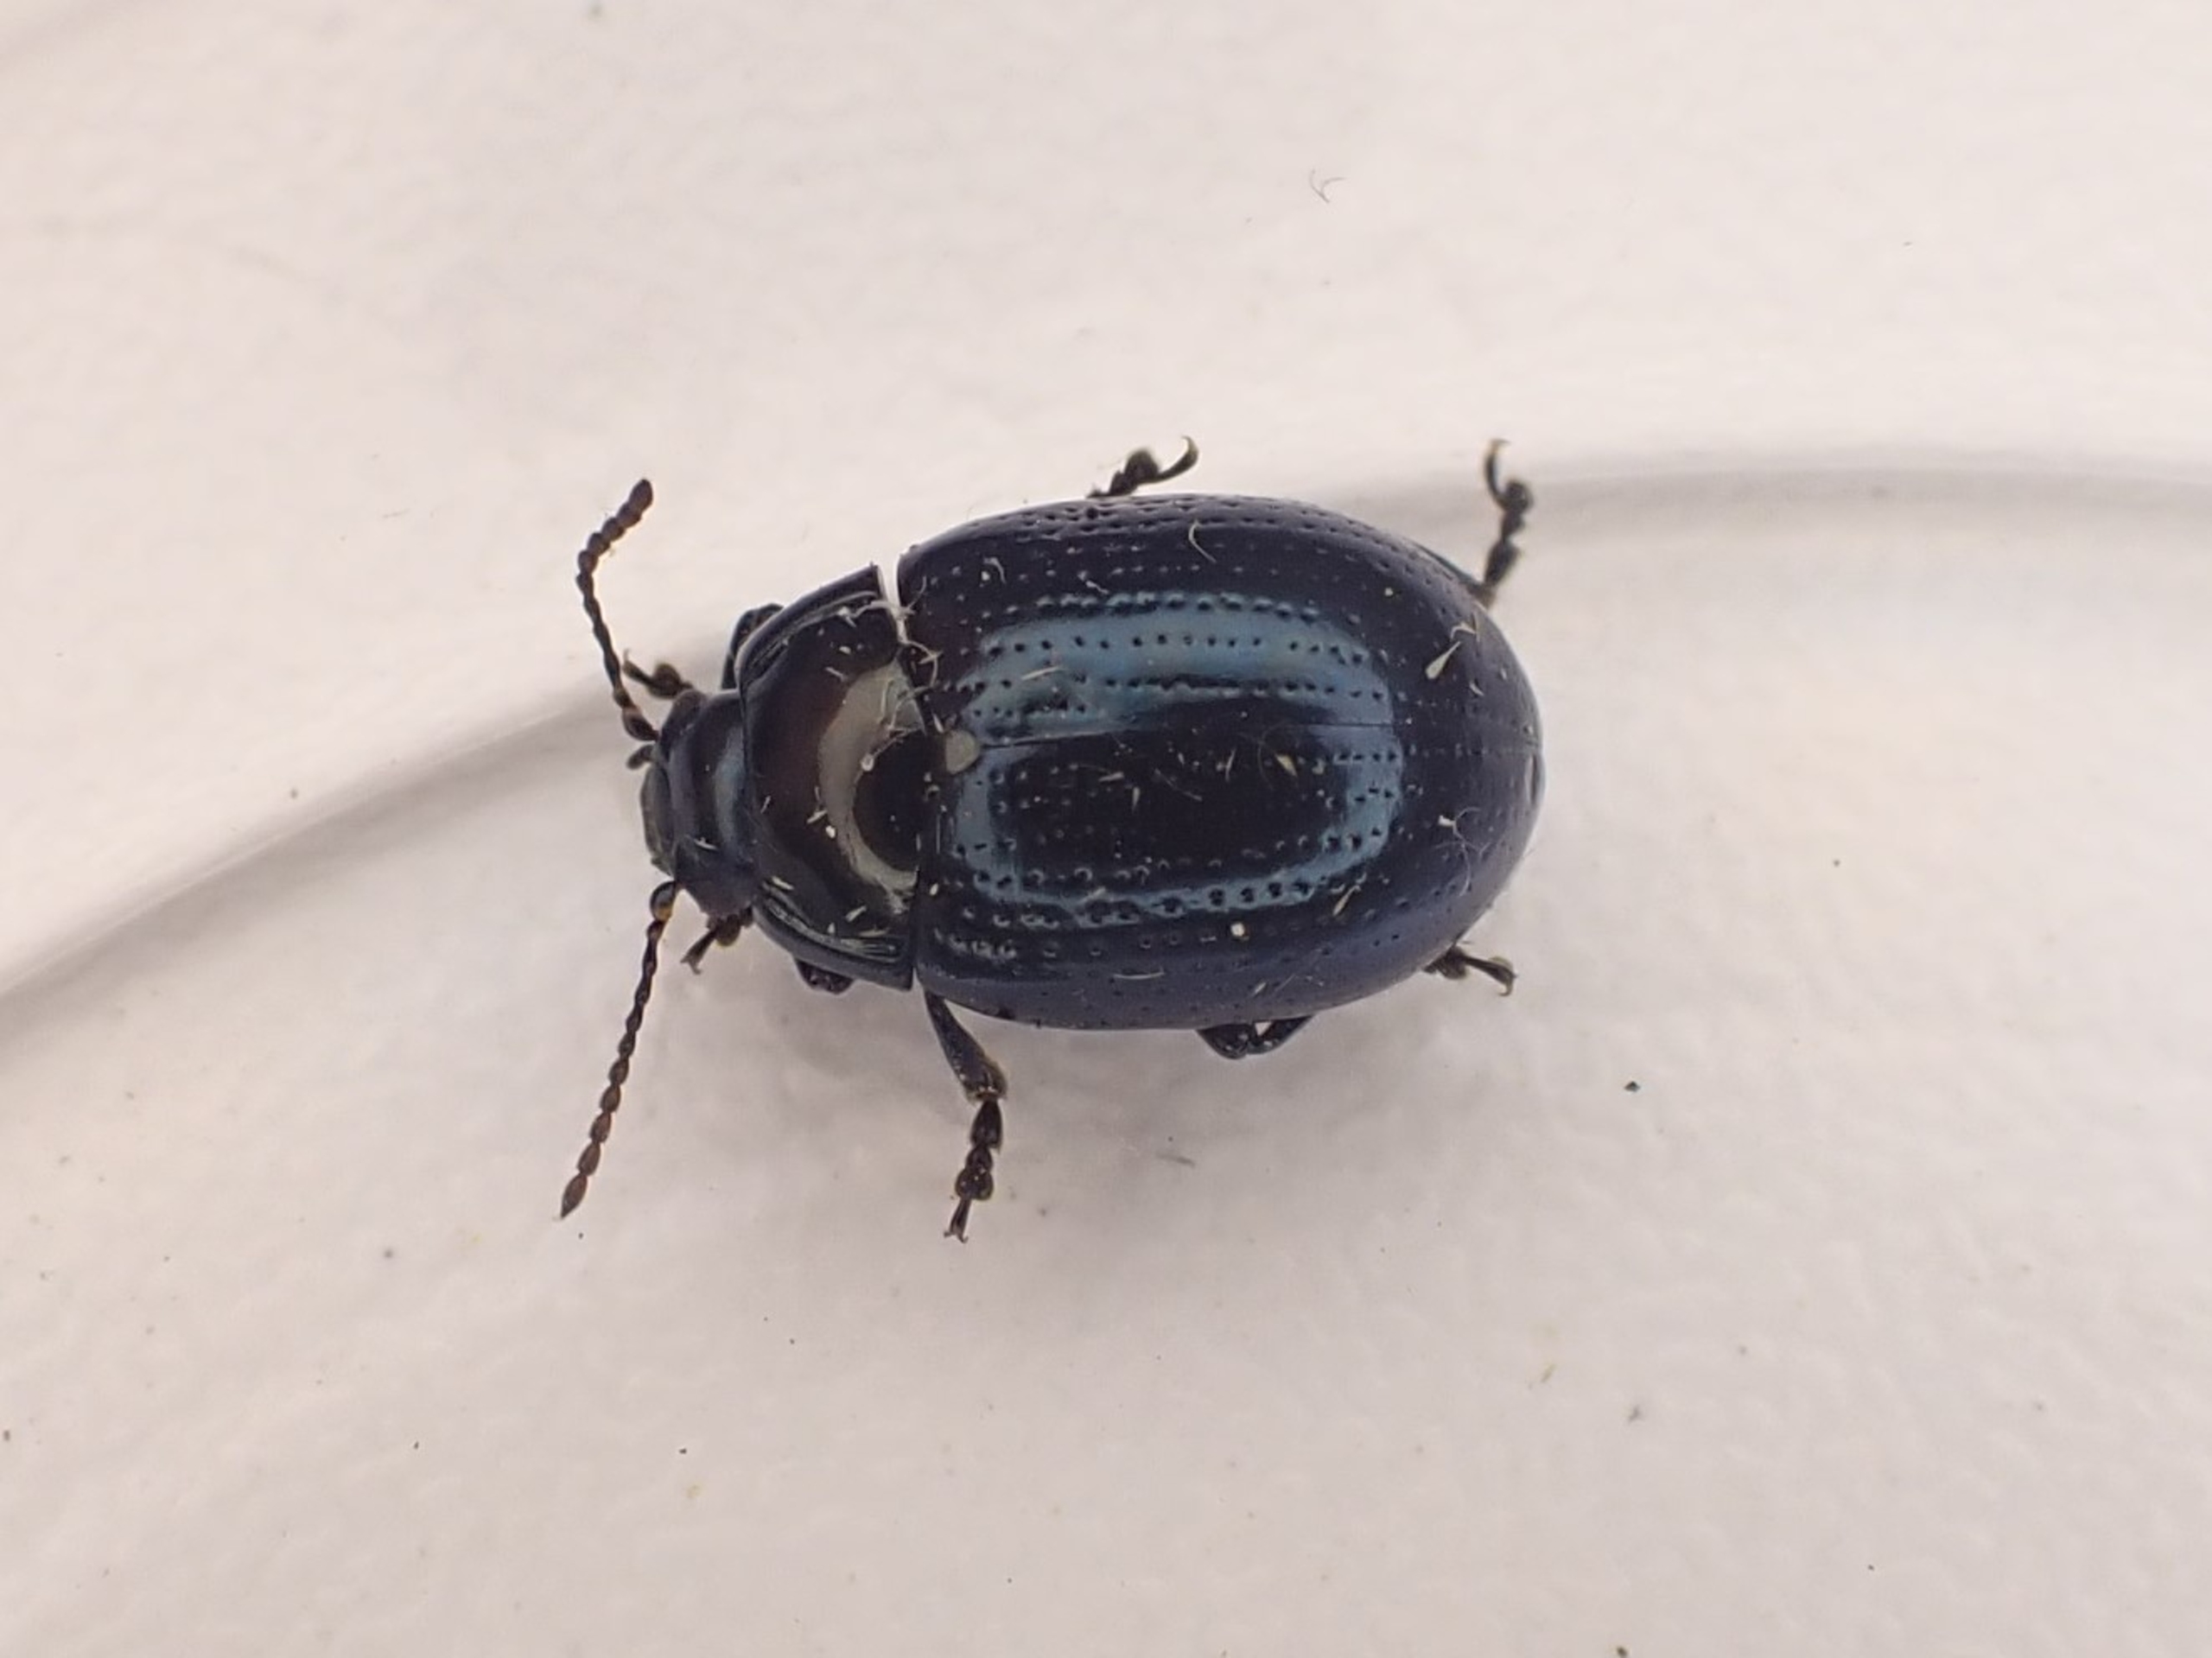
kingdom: Animalia
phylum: Arthropoda
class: Insecta
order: Coleoptera
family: Chrysomelidae
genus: Chrysolina
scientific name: Chrysolina oricalcia
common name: Rækkepunkteret guldbille
